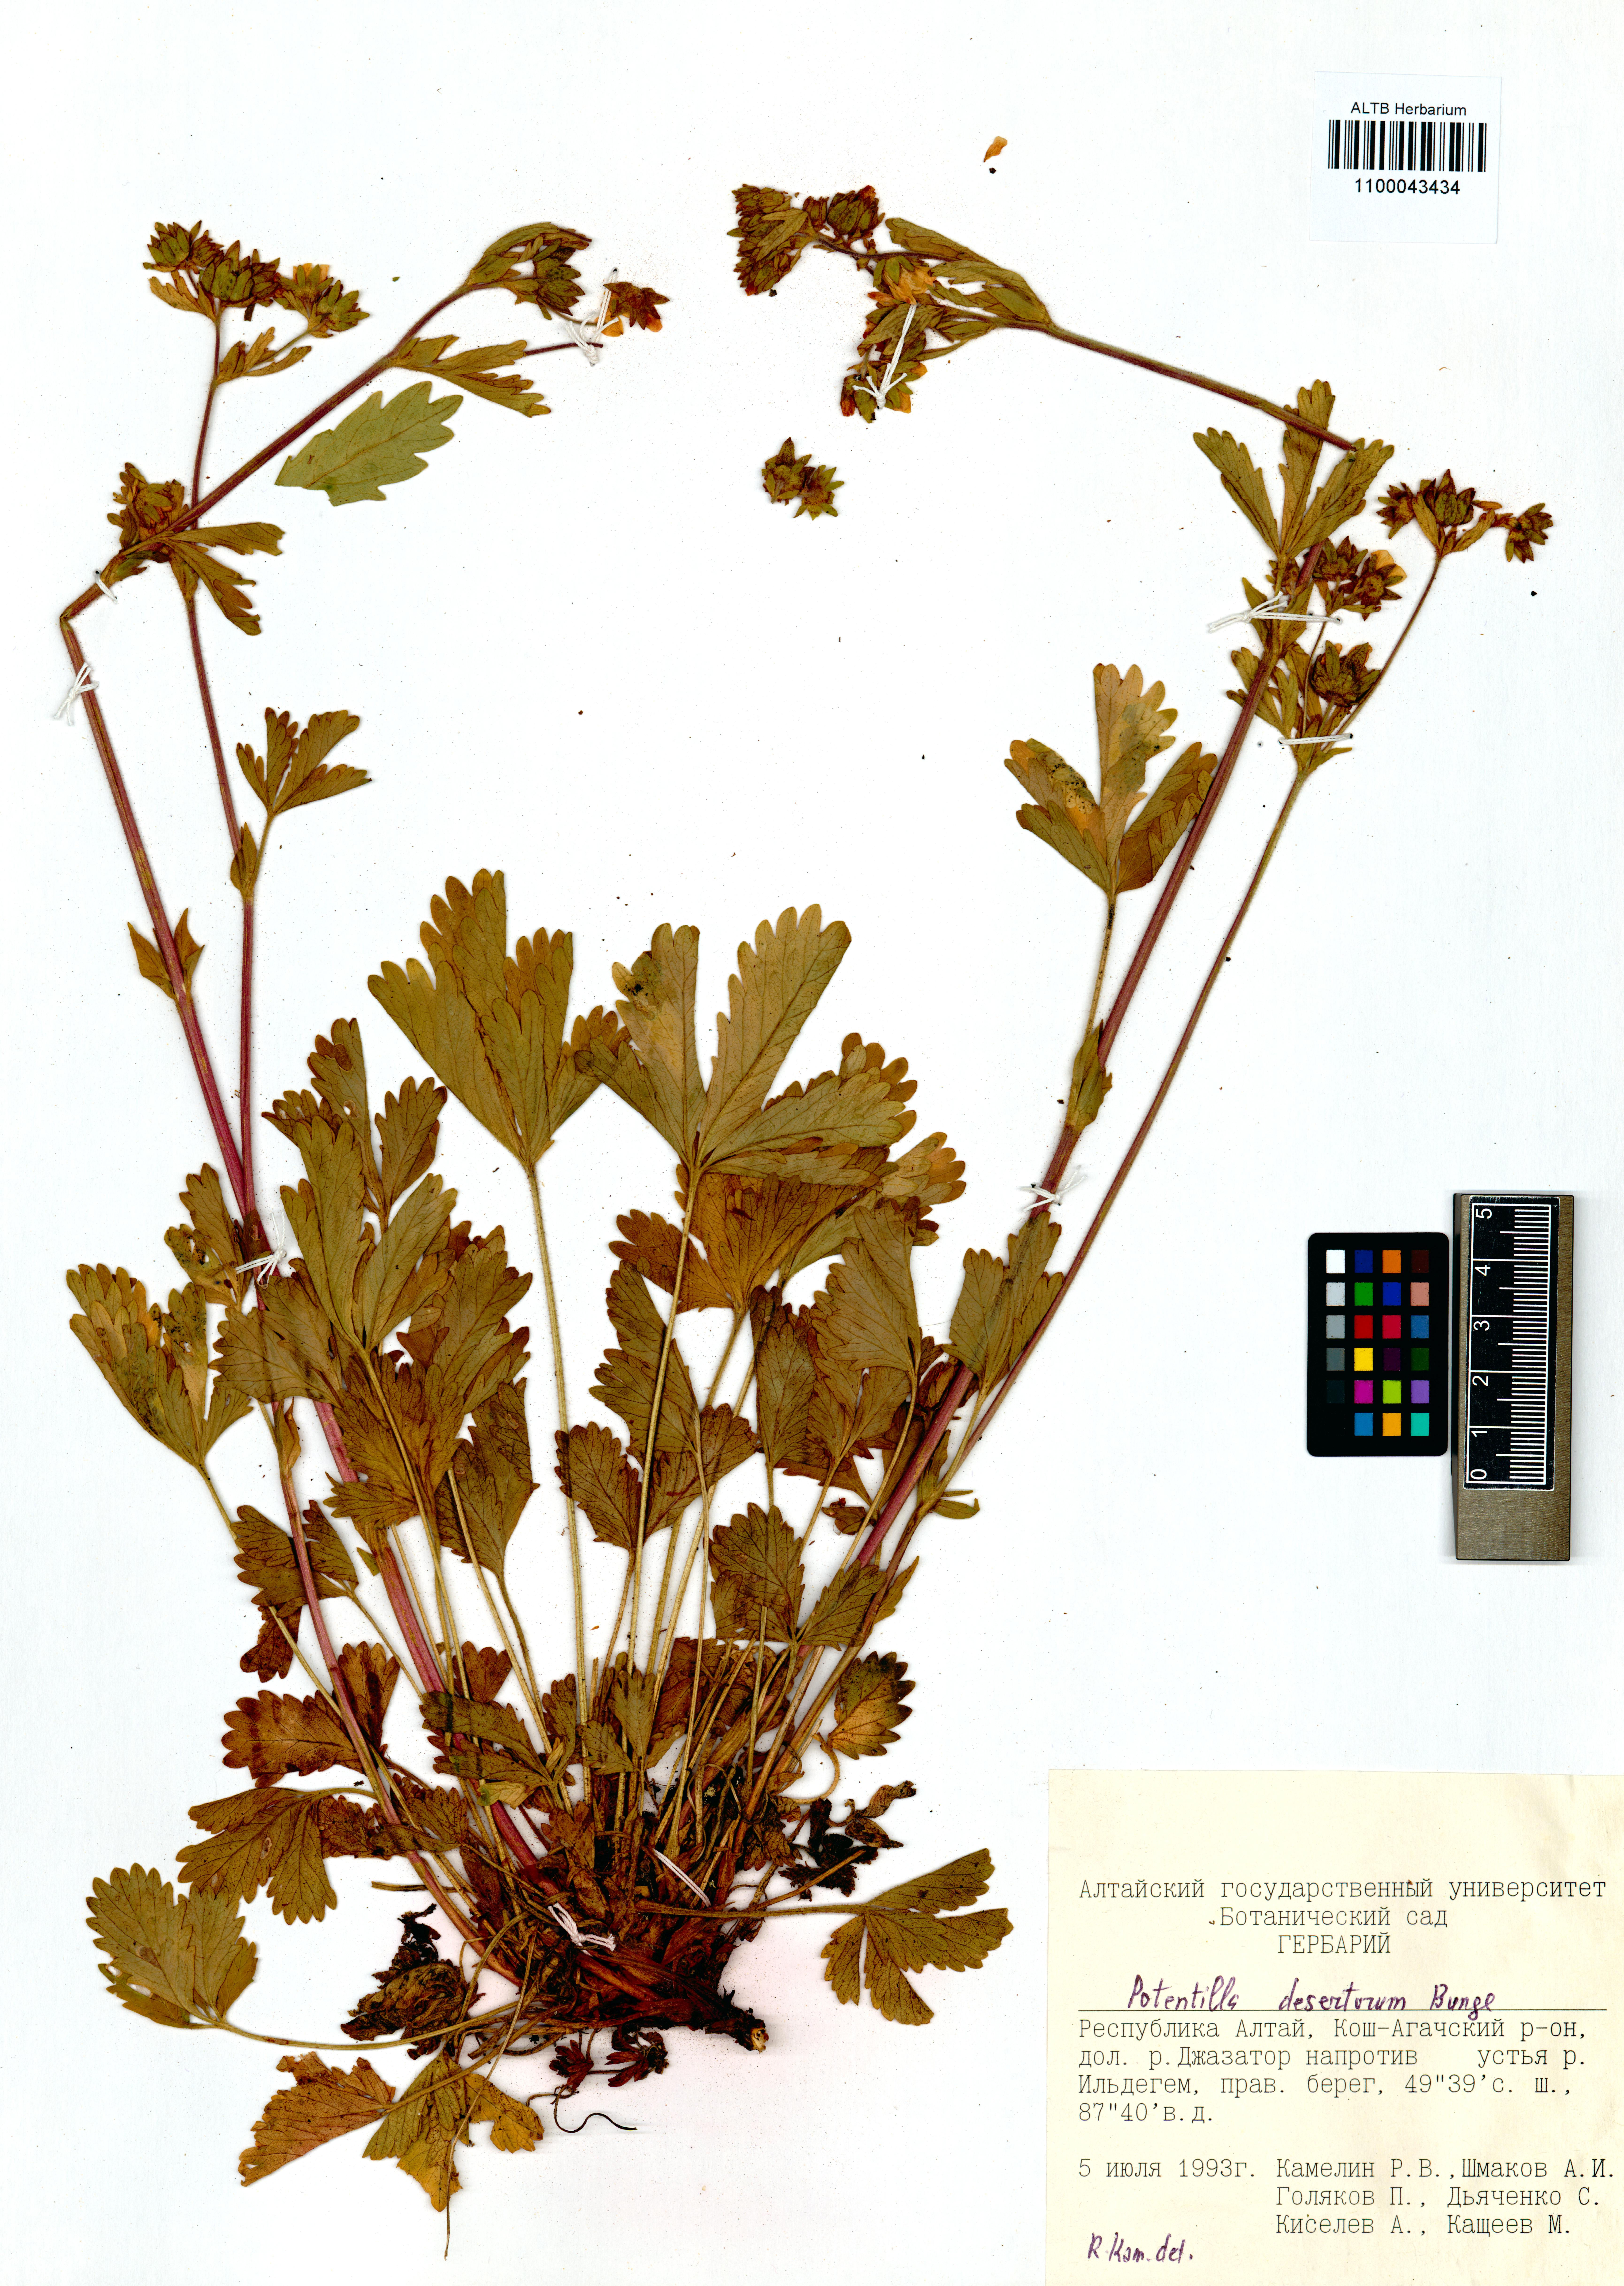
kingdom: Plantae
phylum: Tracheophyta
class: Magnoliopsida
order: Rosales
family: Rosaceae
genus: Potentilla
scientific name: Potentilla desertorum
